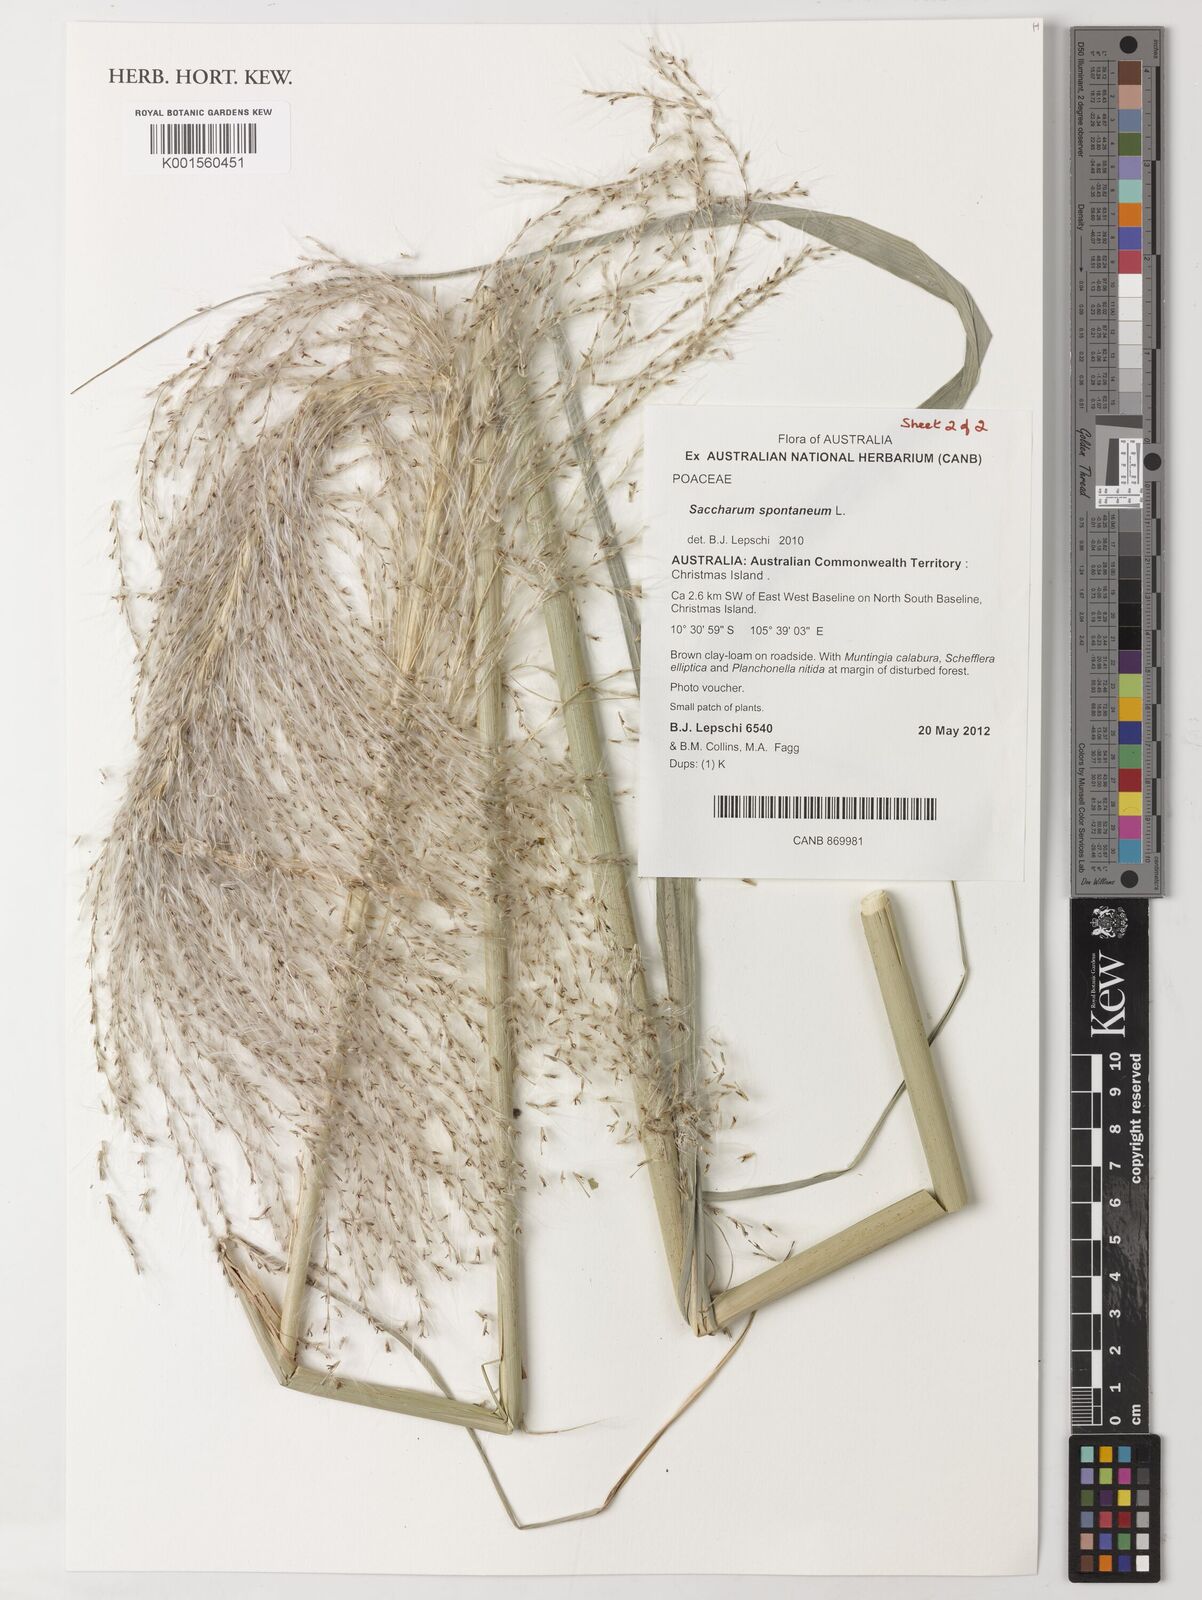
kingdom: Plantae
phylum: Tracheophyta
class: Liliopsida
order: Poales
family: Poaceae
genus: Saccharum
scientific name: Saccharum spontaneum
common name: Wild sugarcane
